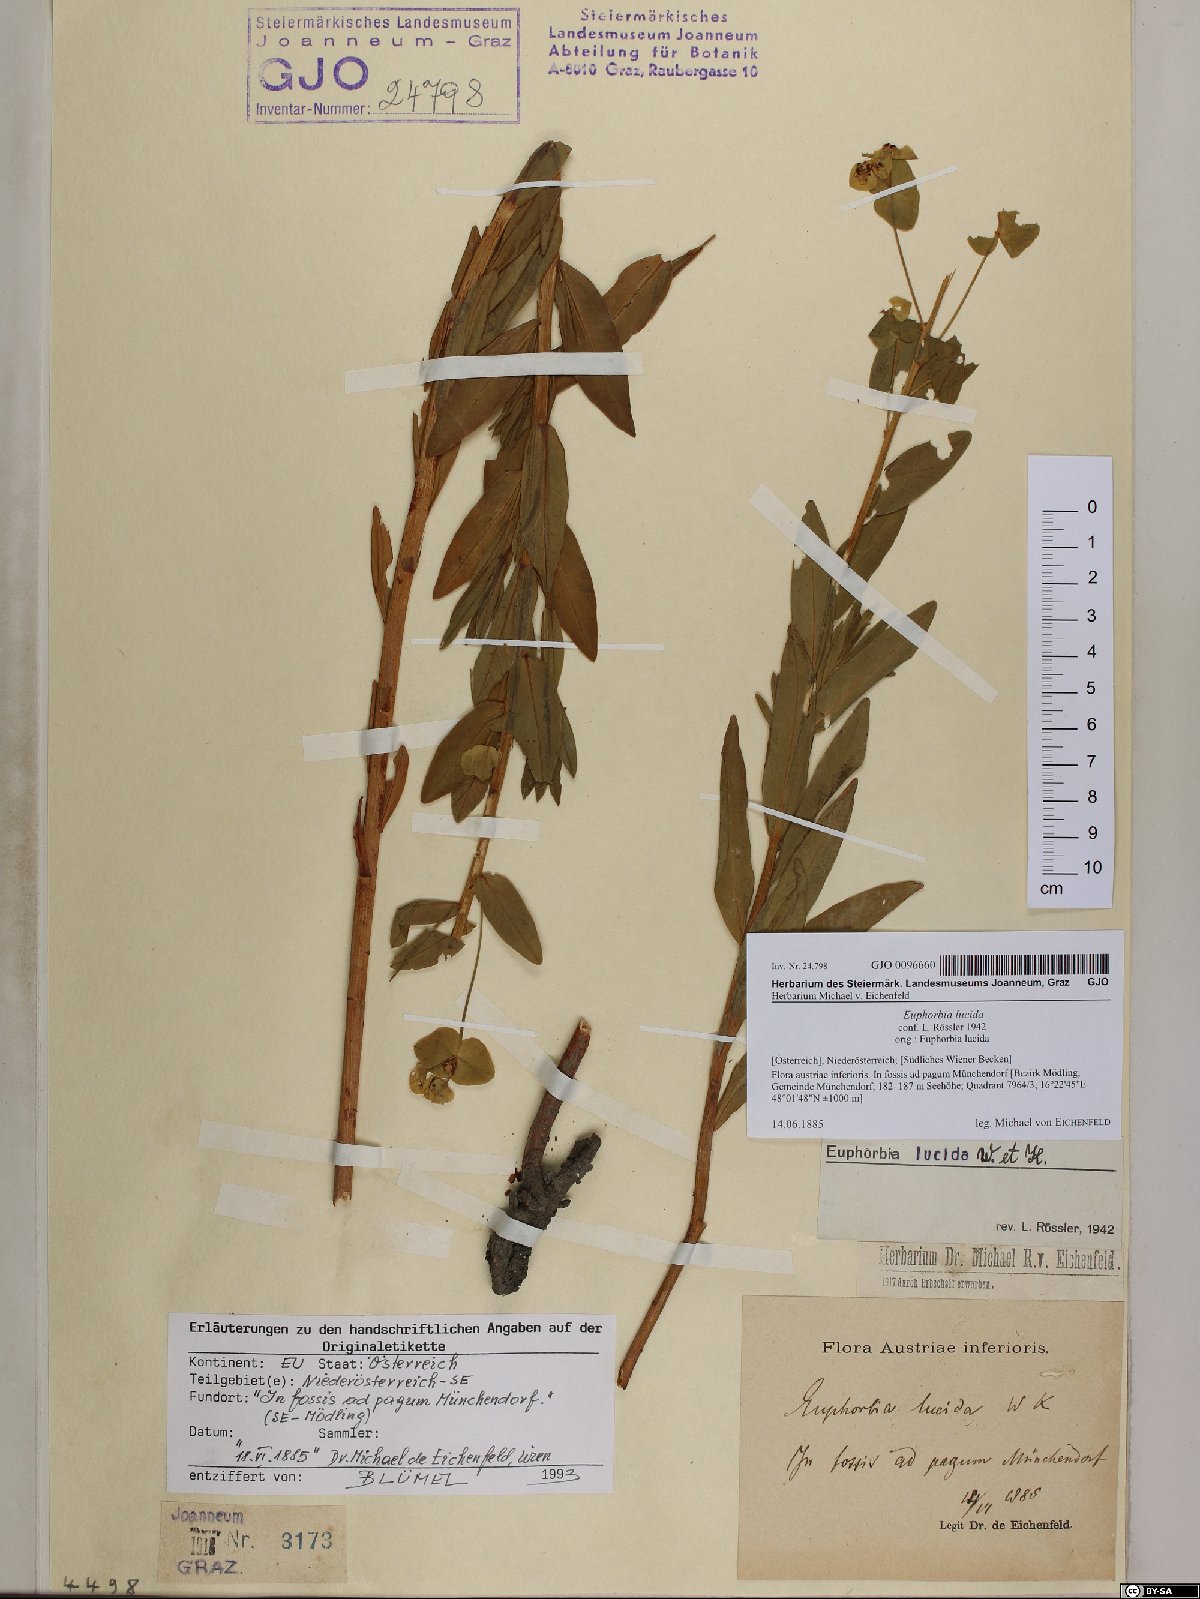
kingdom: Plantae
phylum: Tracheophyta
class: Magnoliopsida
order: Malpighiales
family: Euphorbiaceae
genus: Euphorbia
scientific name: Euphorbia lucida
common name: Shining spurge
